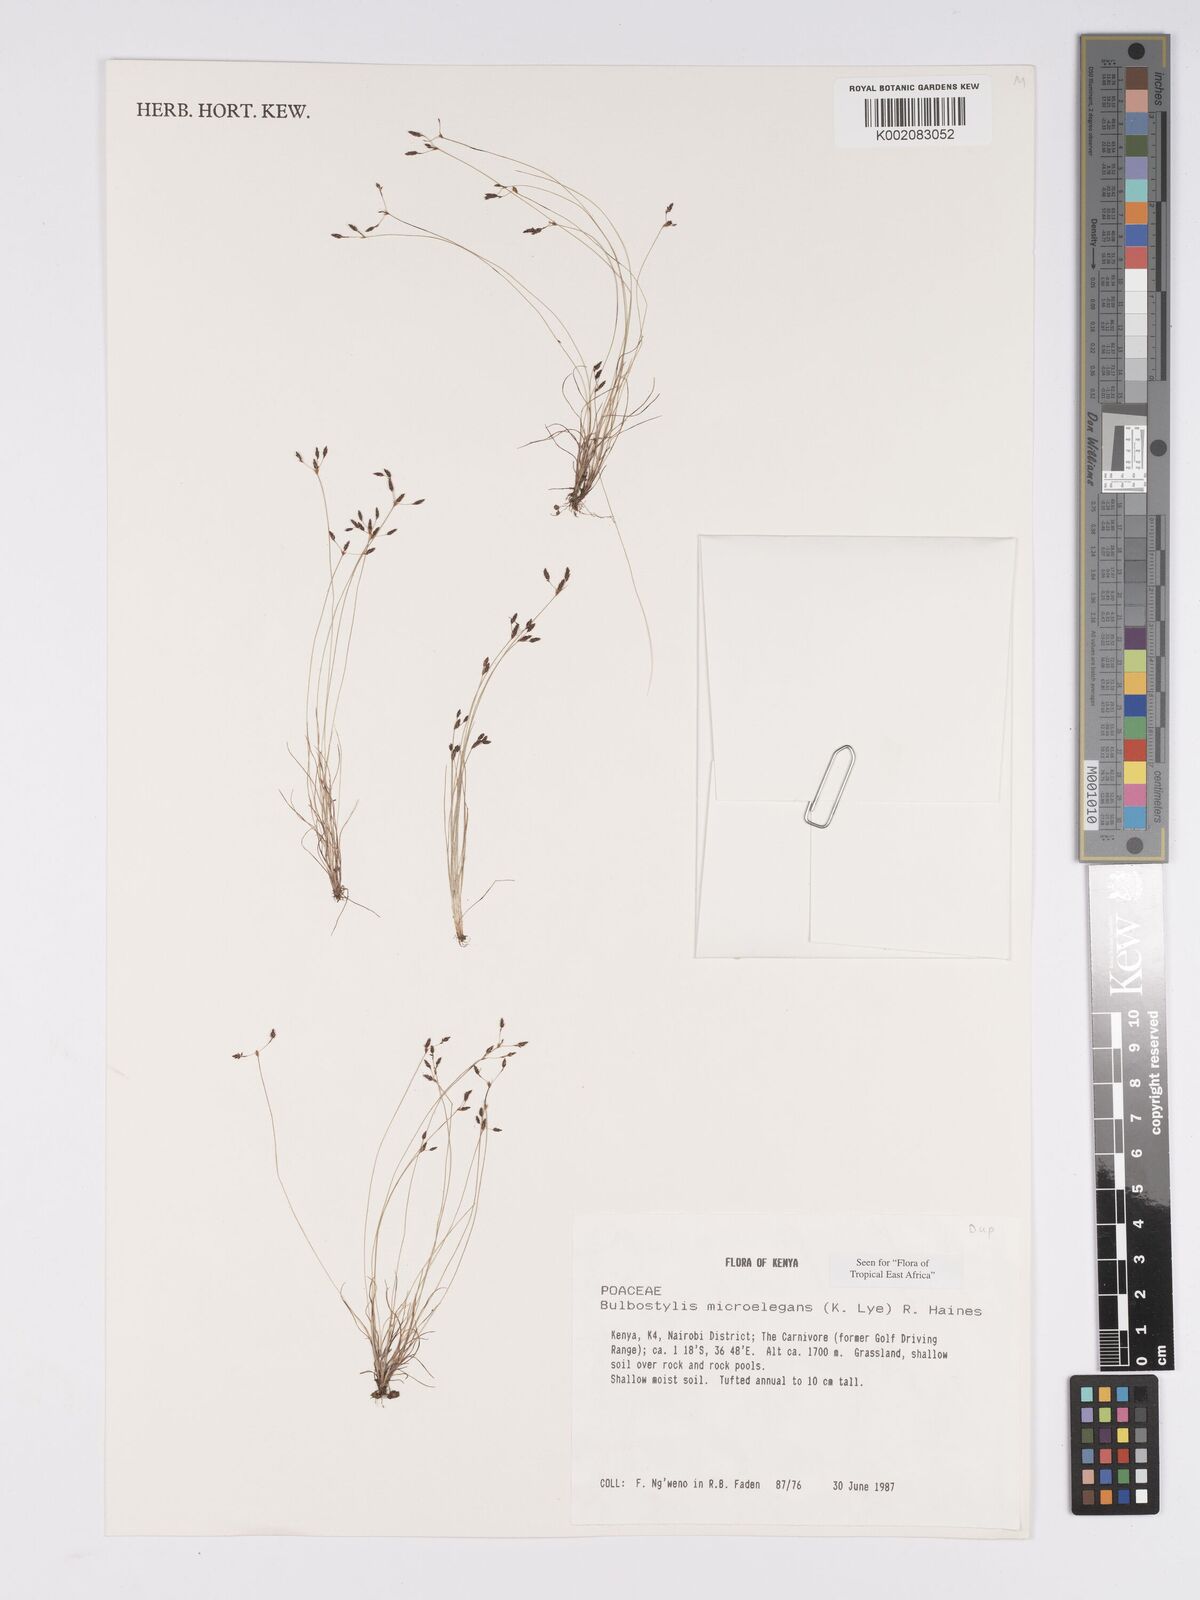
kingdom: Plantae
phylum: Tracheophyta
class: Liliopsida
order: Poales
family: Cyperaceae
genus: Bulbostylis
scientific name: Bulbostylis microelegans
